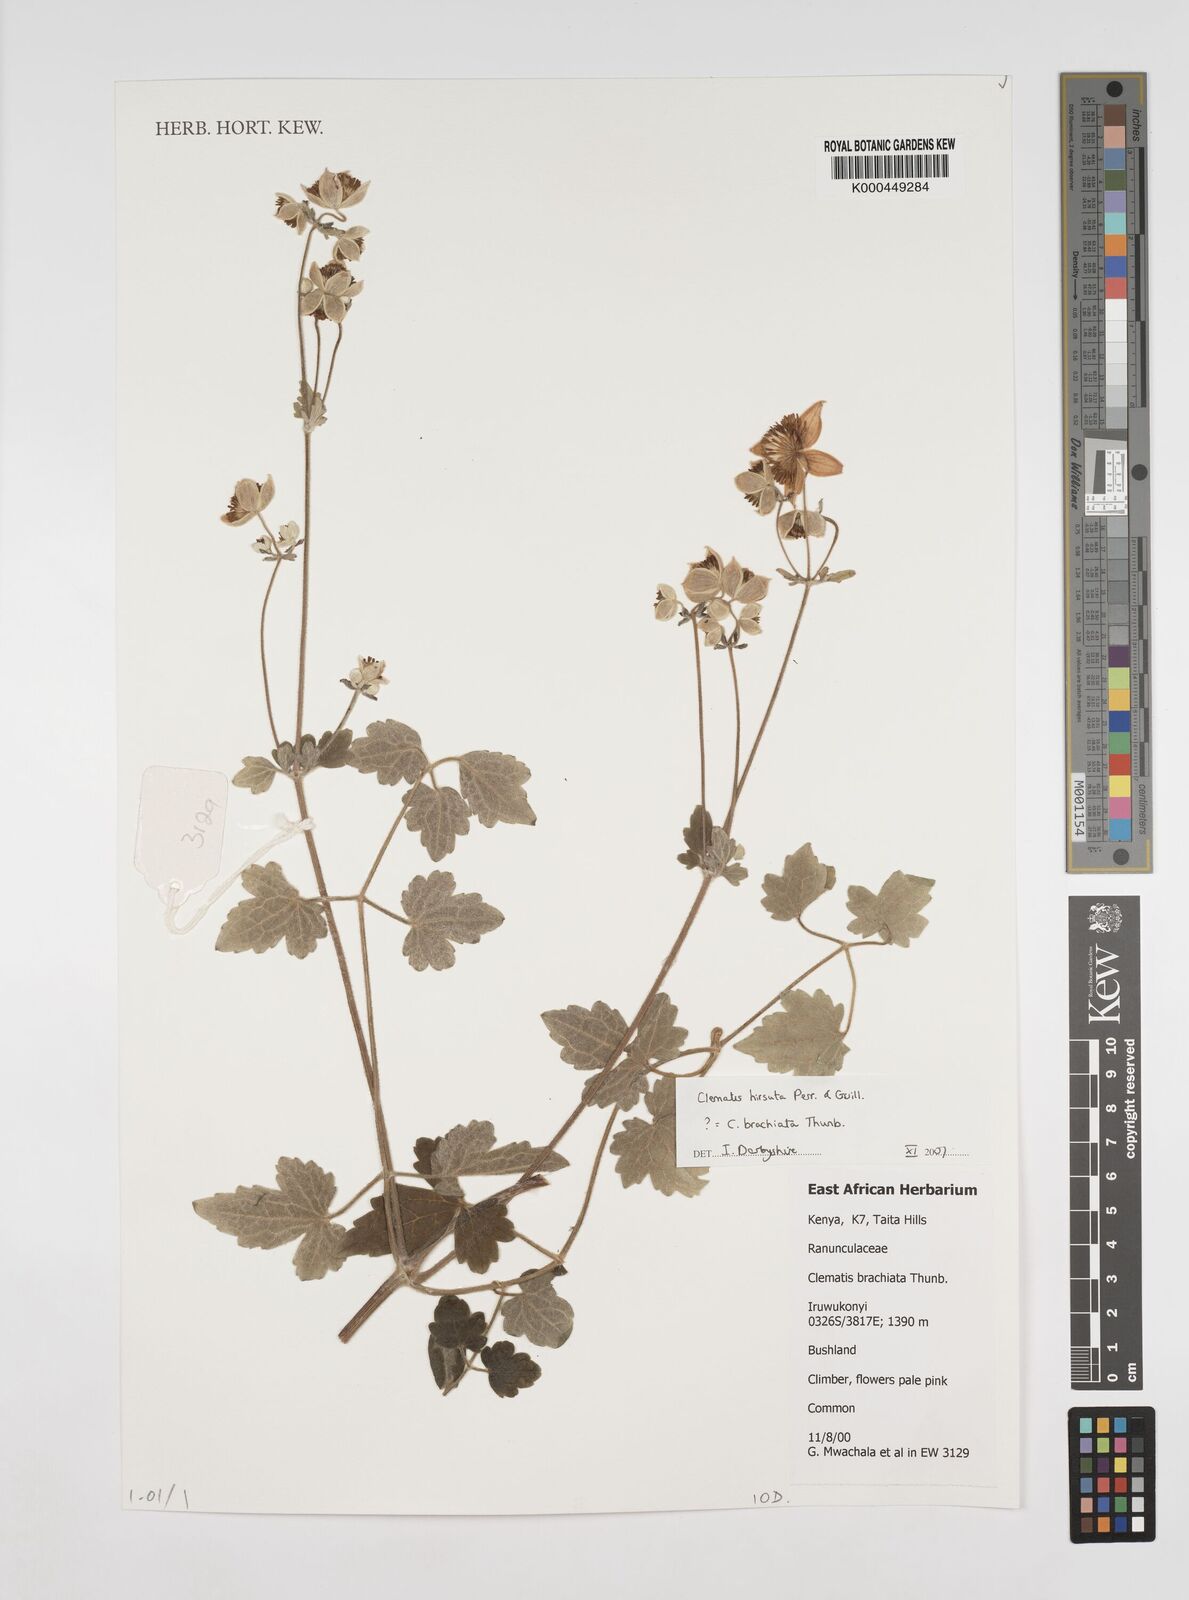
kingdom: Plantae
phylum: Tracheophyta
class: Magnoliopsida
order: Ranunculales
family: Ranunculaceae
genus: Clematis
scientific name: Clematis hirsuta
